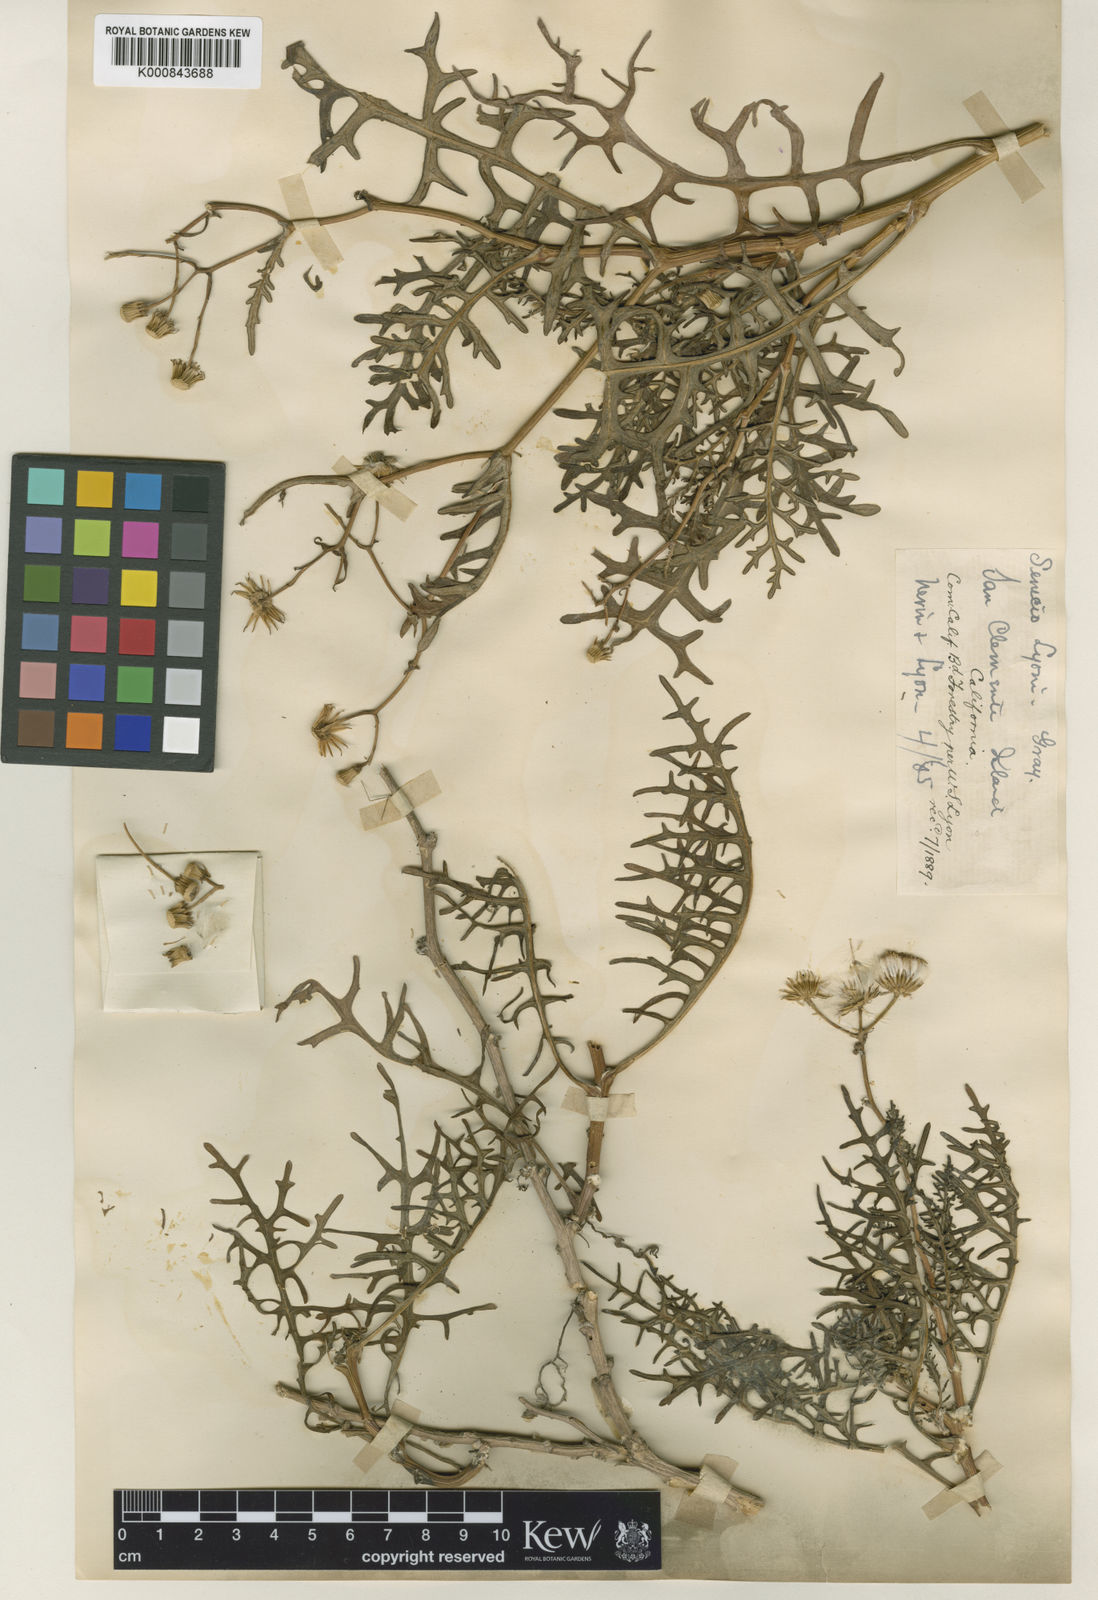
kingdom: Plantae
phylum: Tracheophyta
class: Magnoliopsida
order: Asterales
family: Asteraceae
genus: Senecio
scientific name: Senecio lyonii
